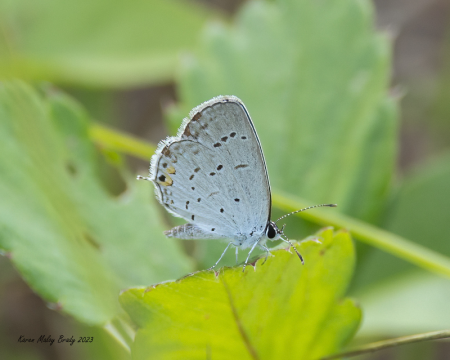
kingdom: Animalia
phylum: Arthropoda
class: Insecta
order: Lepidoptera
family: Lycaenidae
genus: Elkalyce
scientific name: Elkalyce comyntas
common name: Eastern Tailed-Blue
